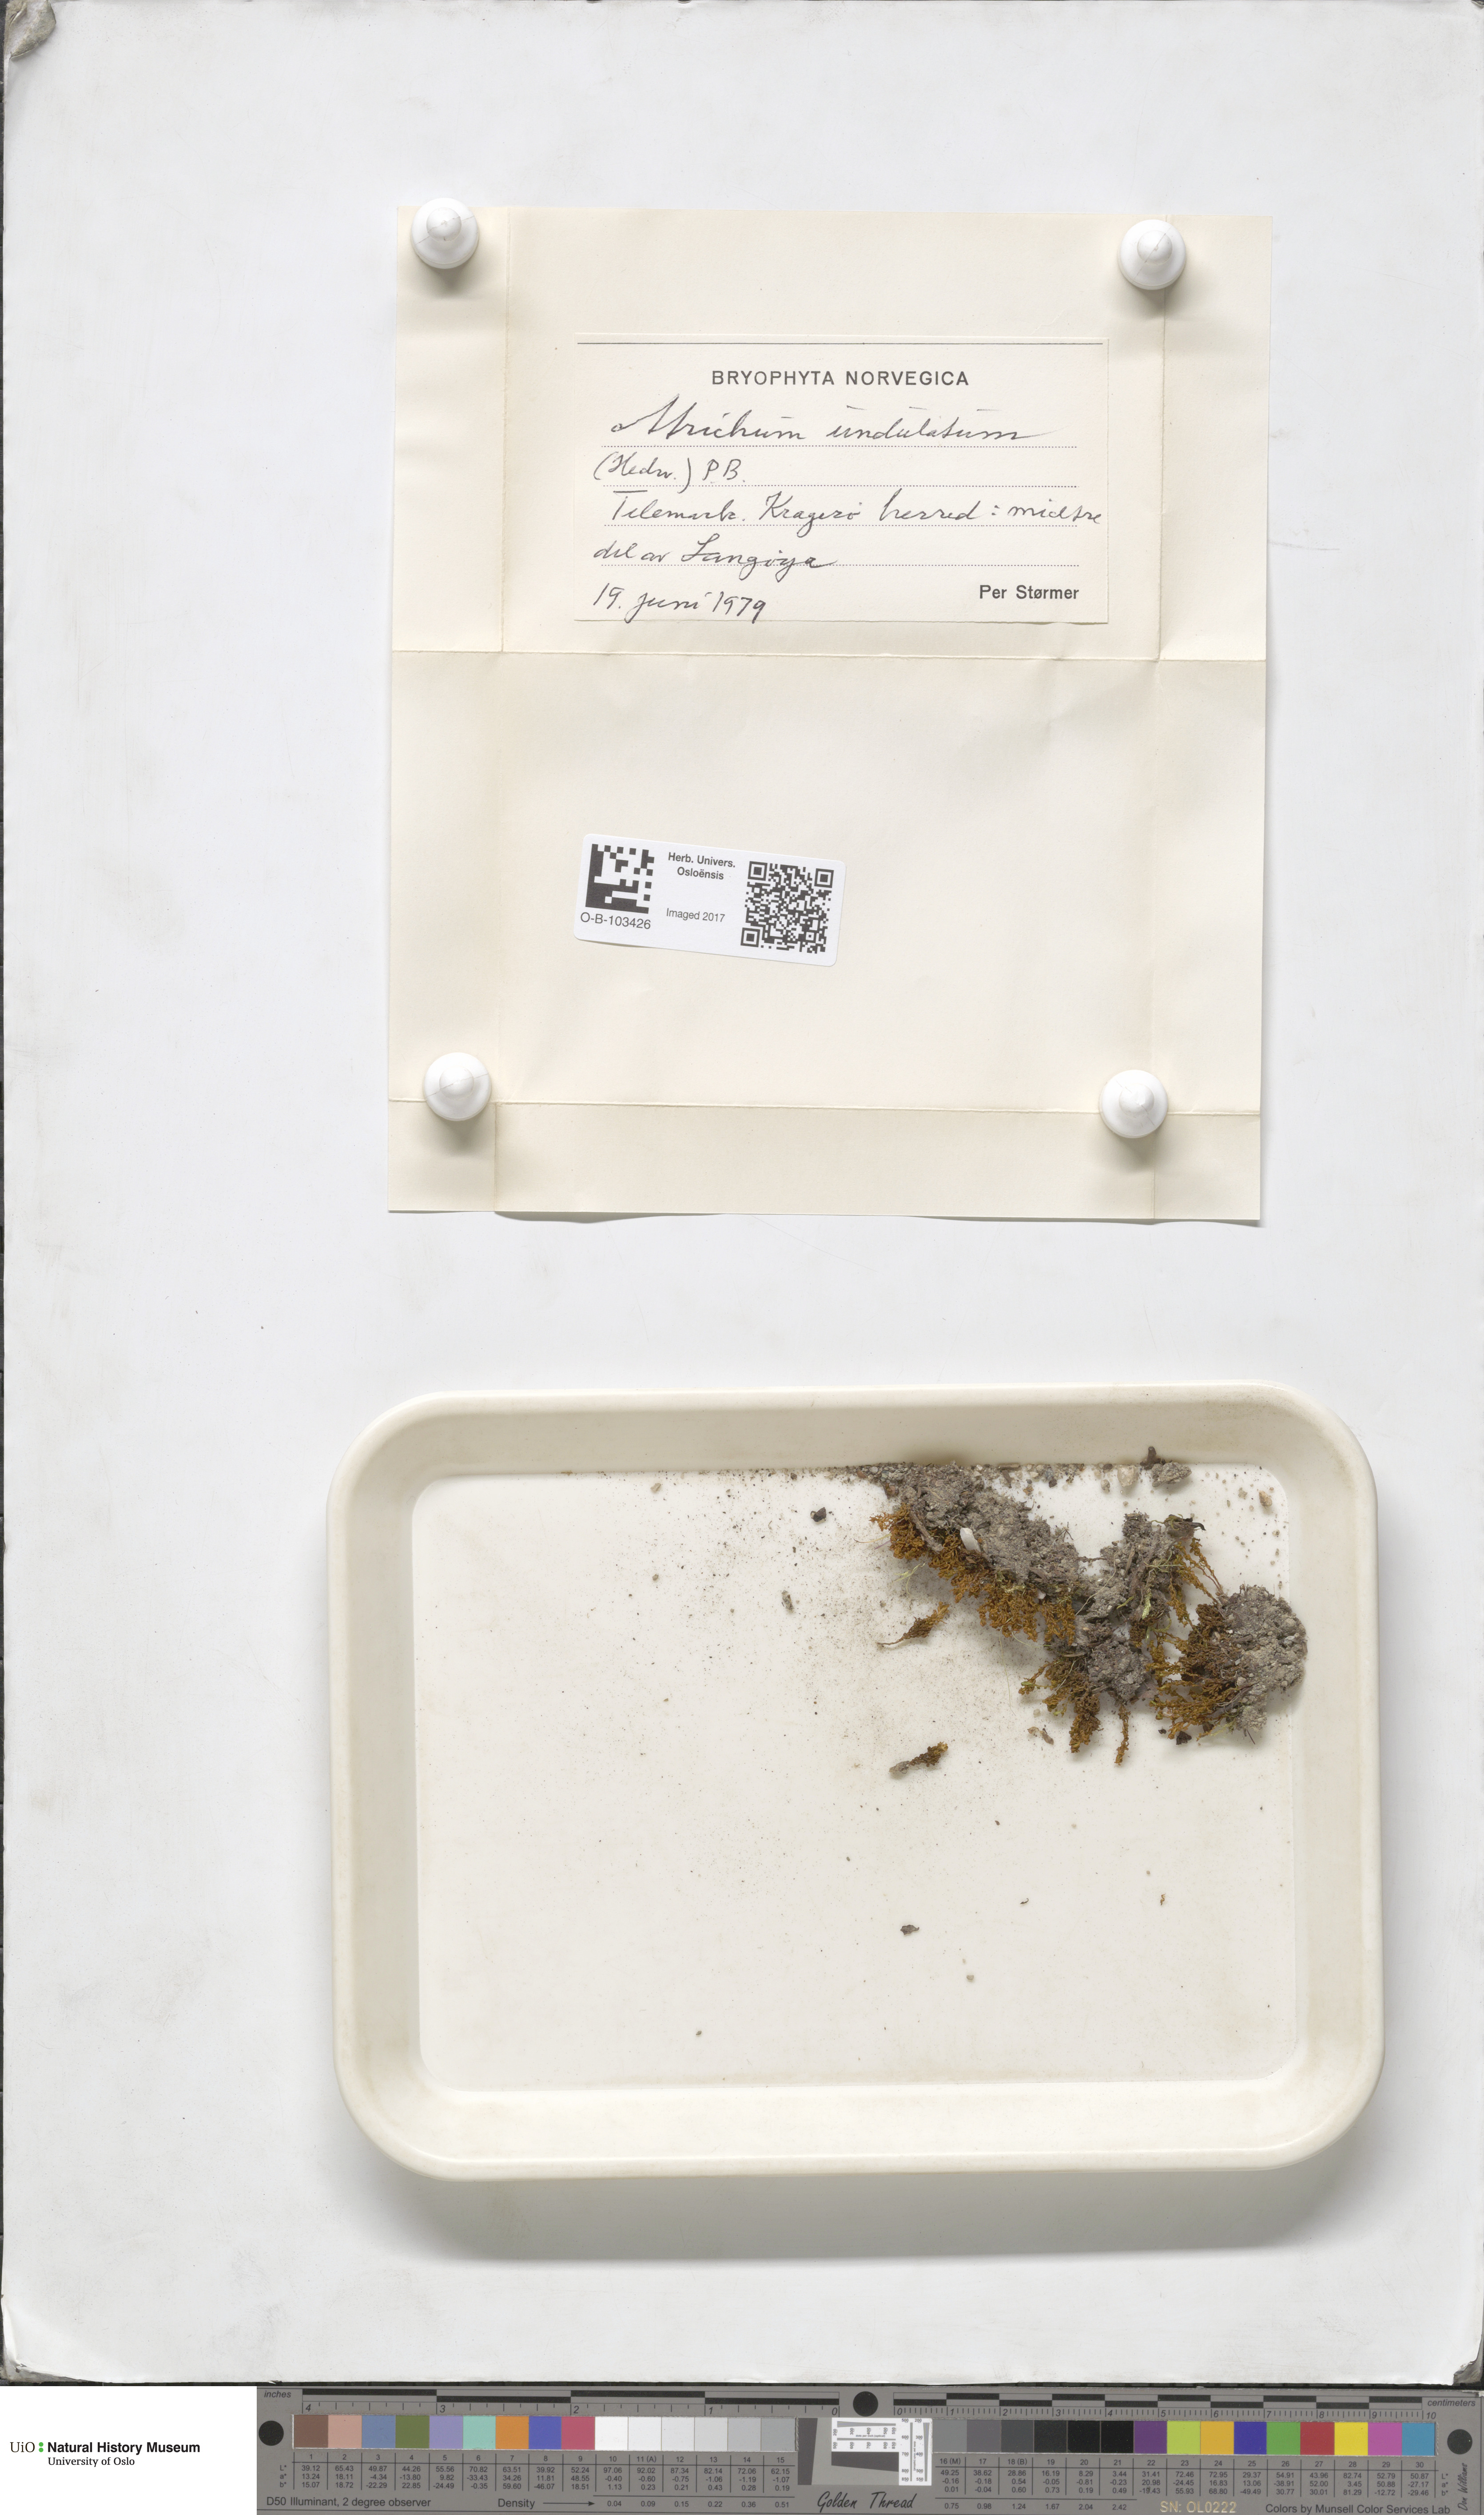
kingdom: Plantae
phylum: Bryophyta
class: Polytrichopsida
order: Polytrichales
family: Polytrichaceae
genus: Atrichum
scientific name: Atrichum undulatum
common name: Common smoothcap
